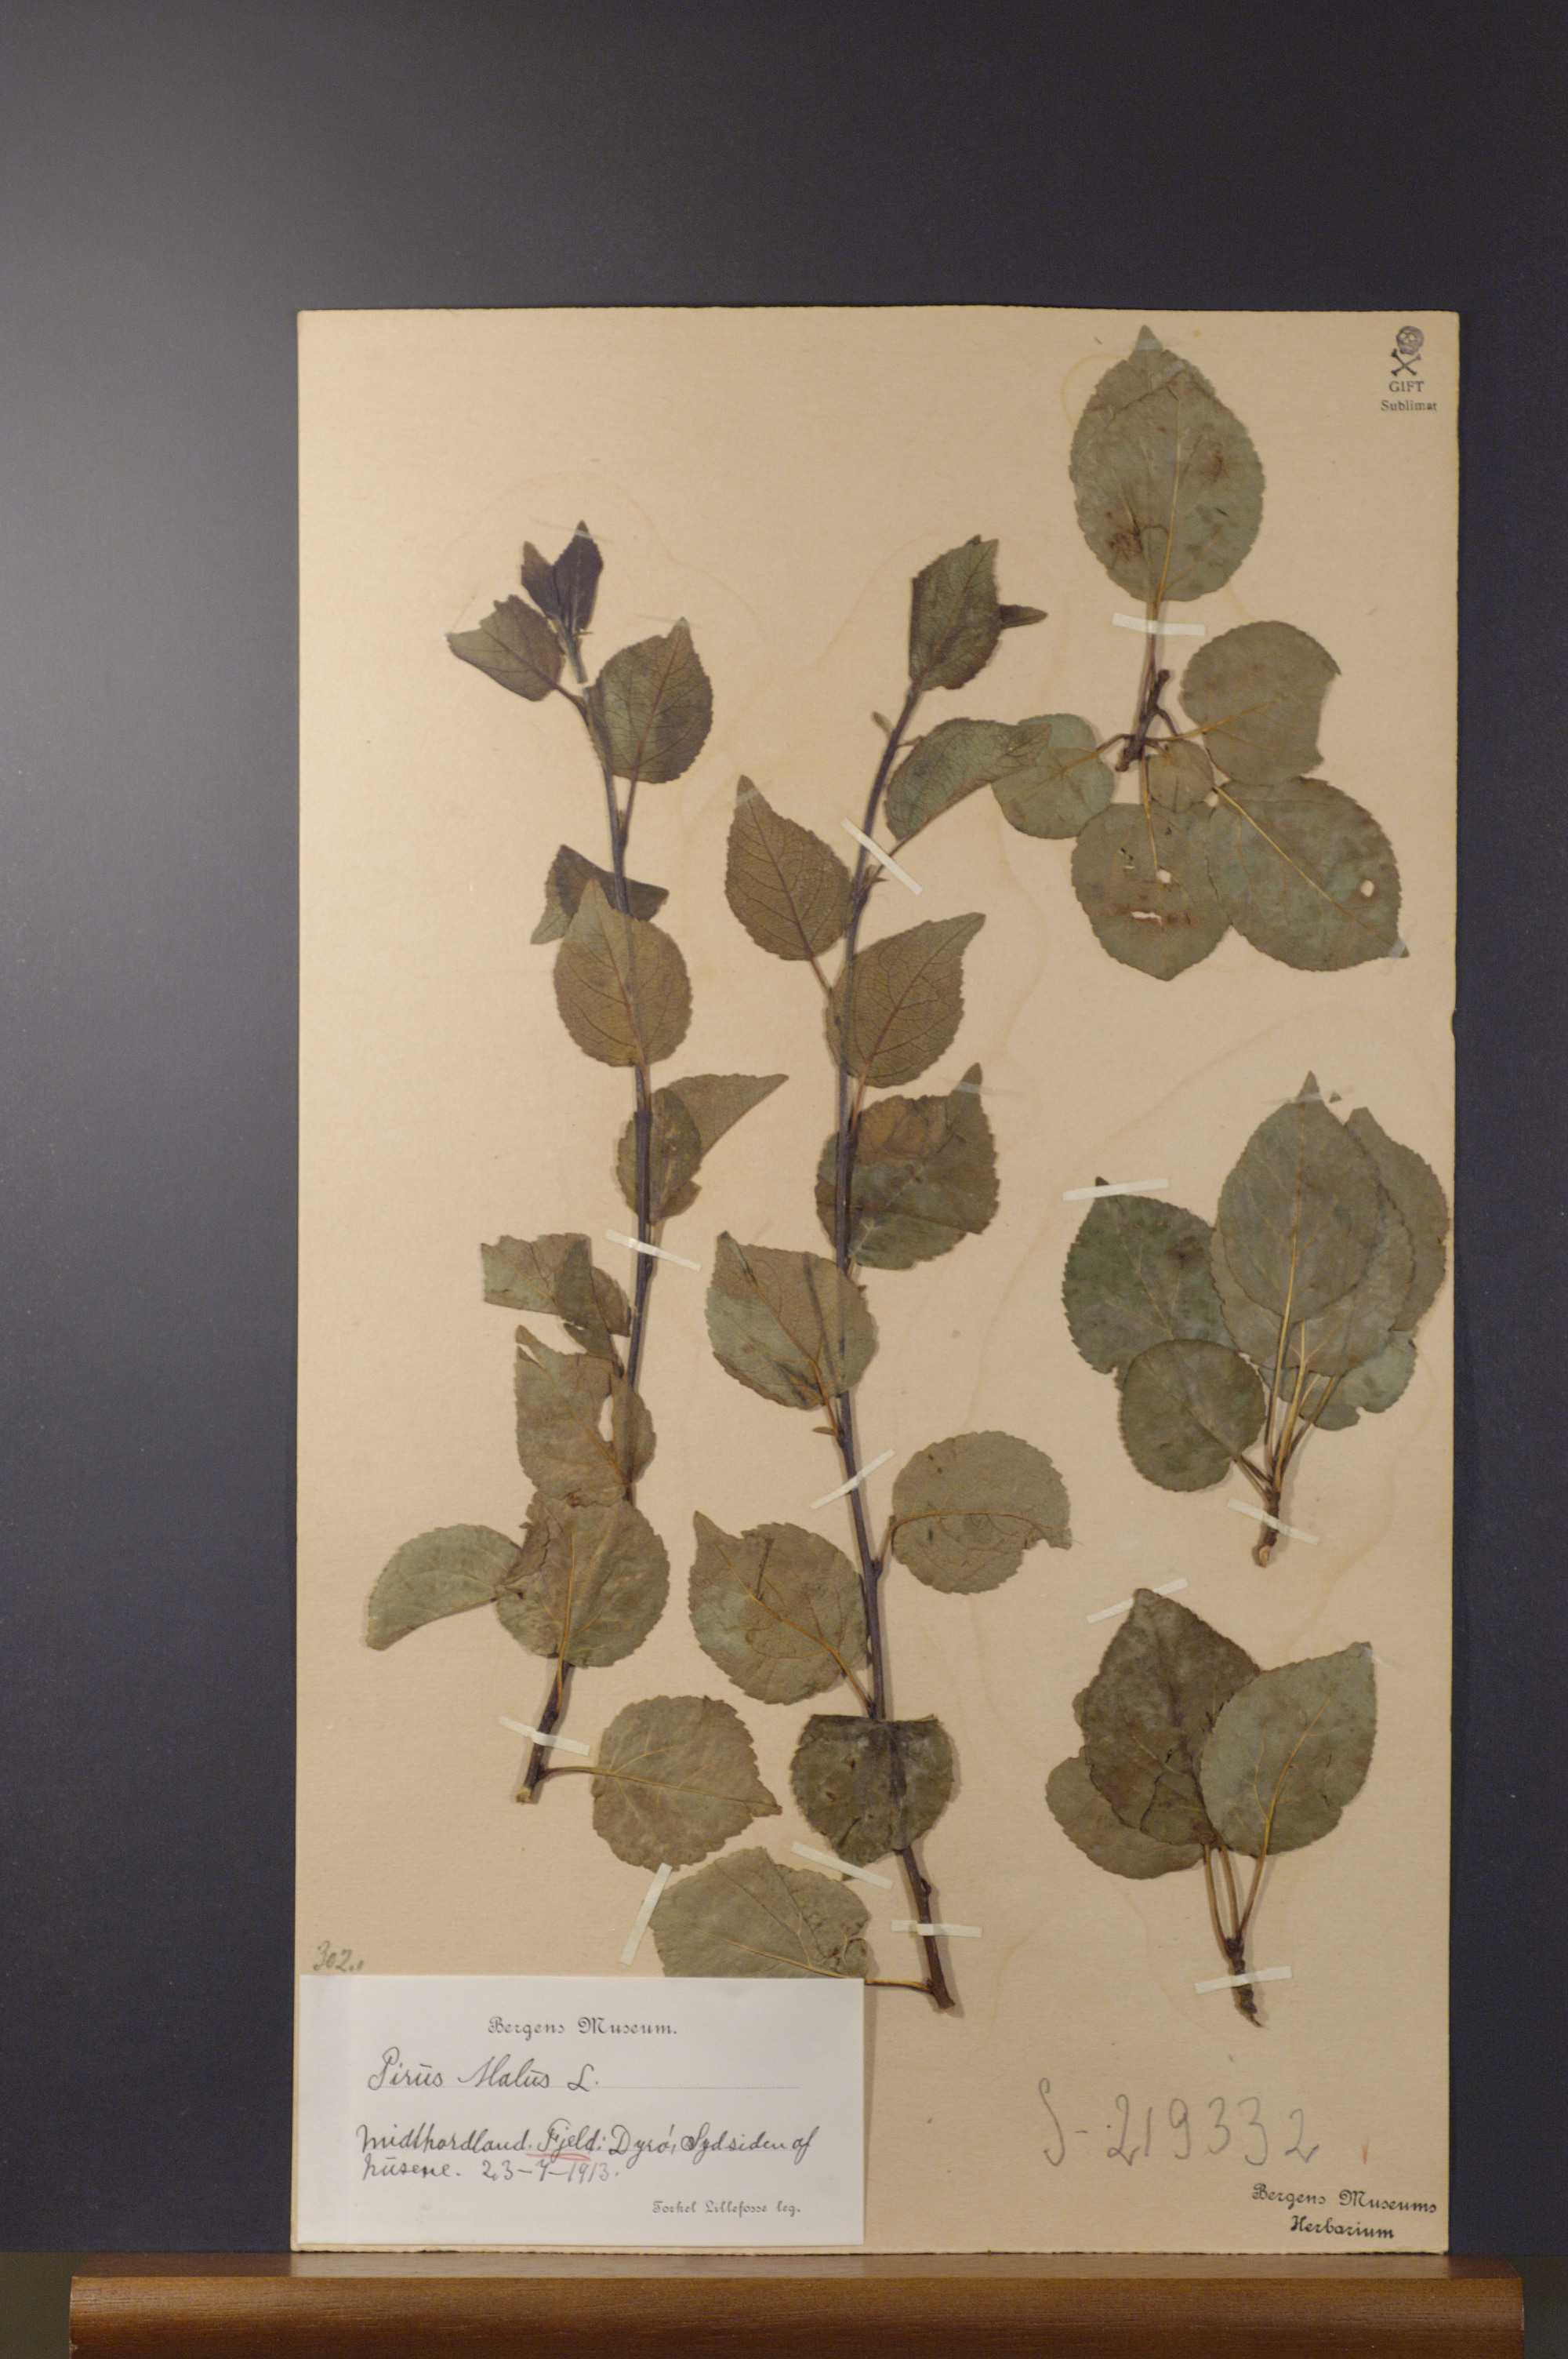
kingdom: Plantae
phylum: Tracheophyta
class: Magnoliopsida
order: Rosales
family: Rosaceae
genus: Malus
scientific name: Malus domestica
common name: Apple
